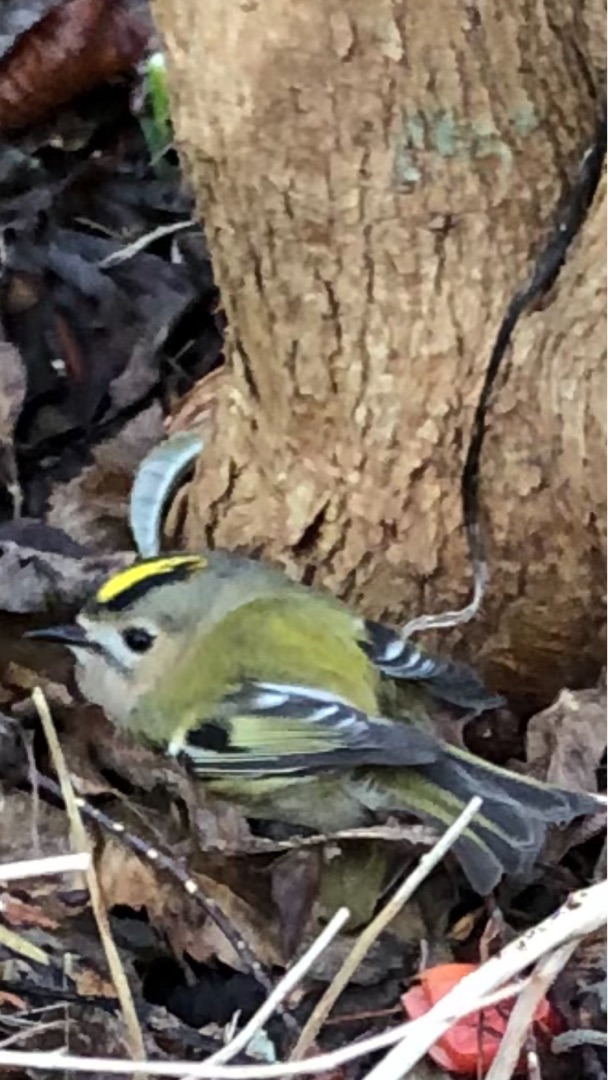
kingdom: Animalia
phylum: Chordata
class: Aves
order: Passeriformes
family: Regulidae
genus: Regulus
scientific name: Regulus regulus
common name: Fuglekonge
